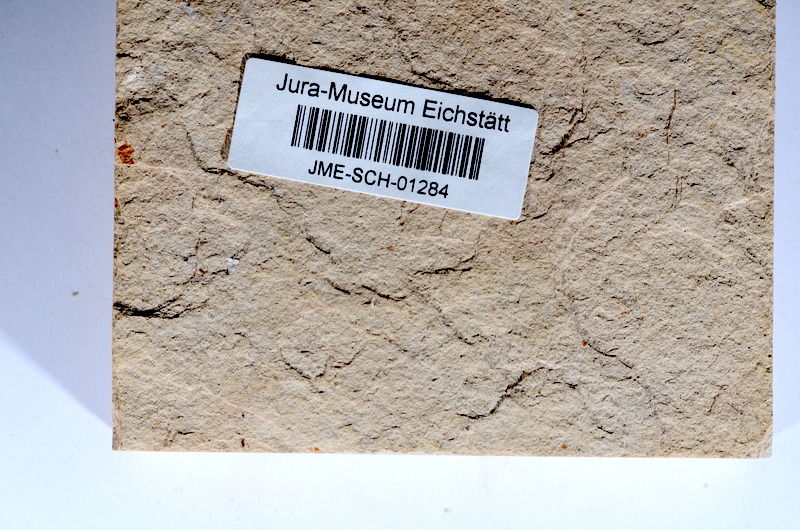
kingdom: Animalia
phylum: Chordata
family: Ascalaboidae
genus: Tharsis
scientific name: Tharsis dubius
